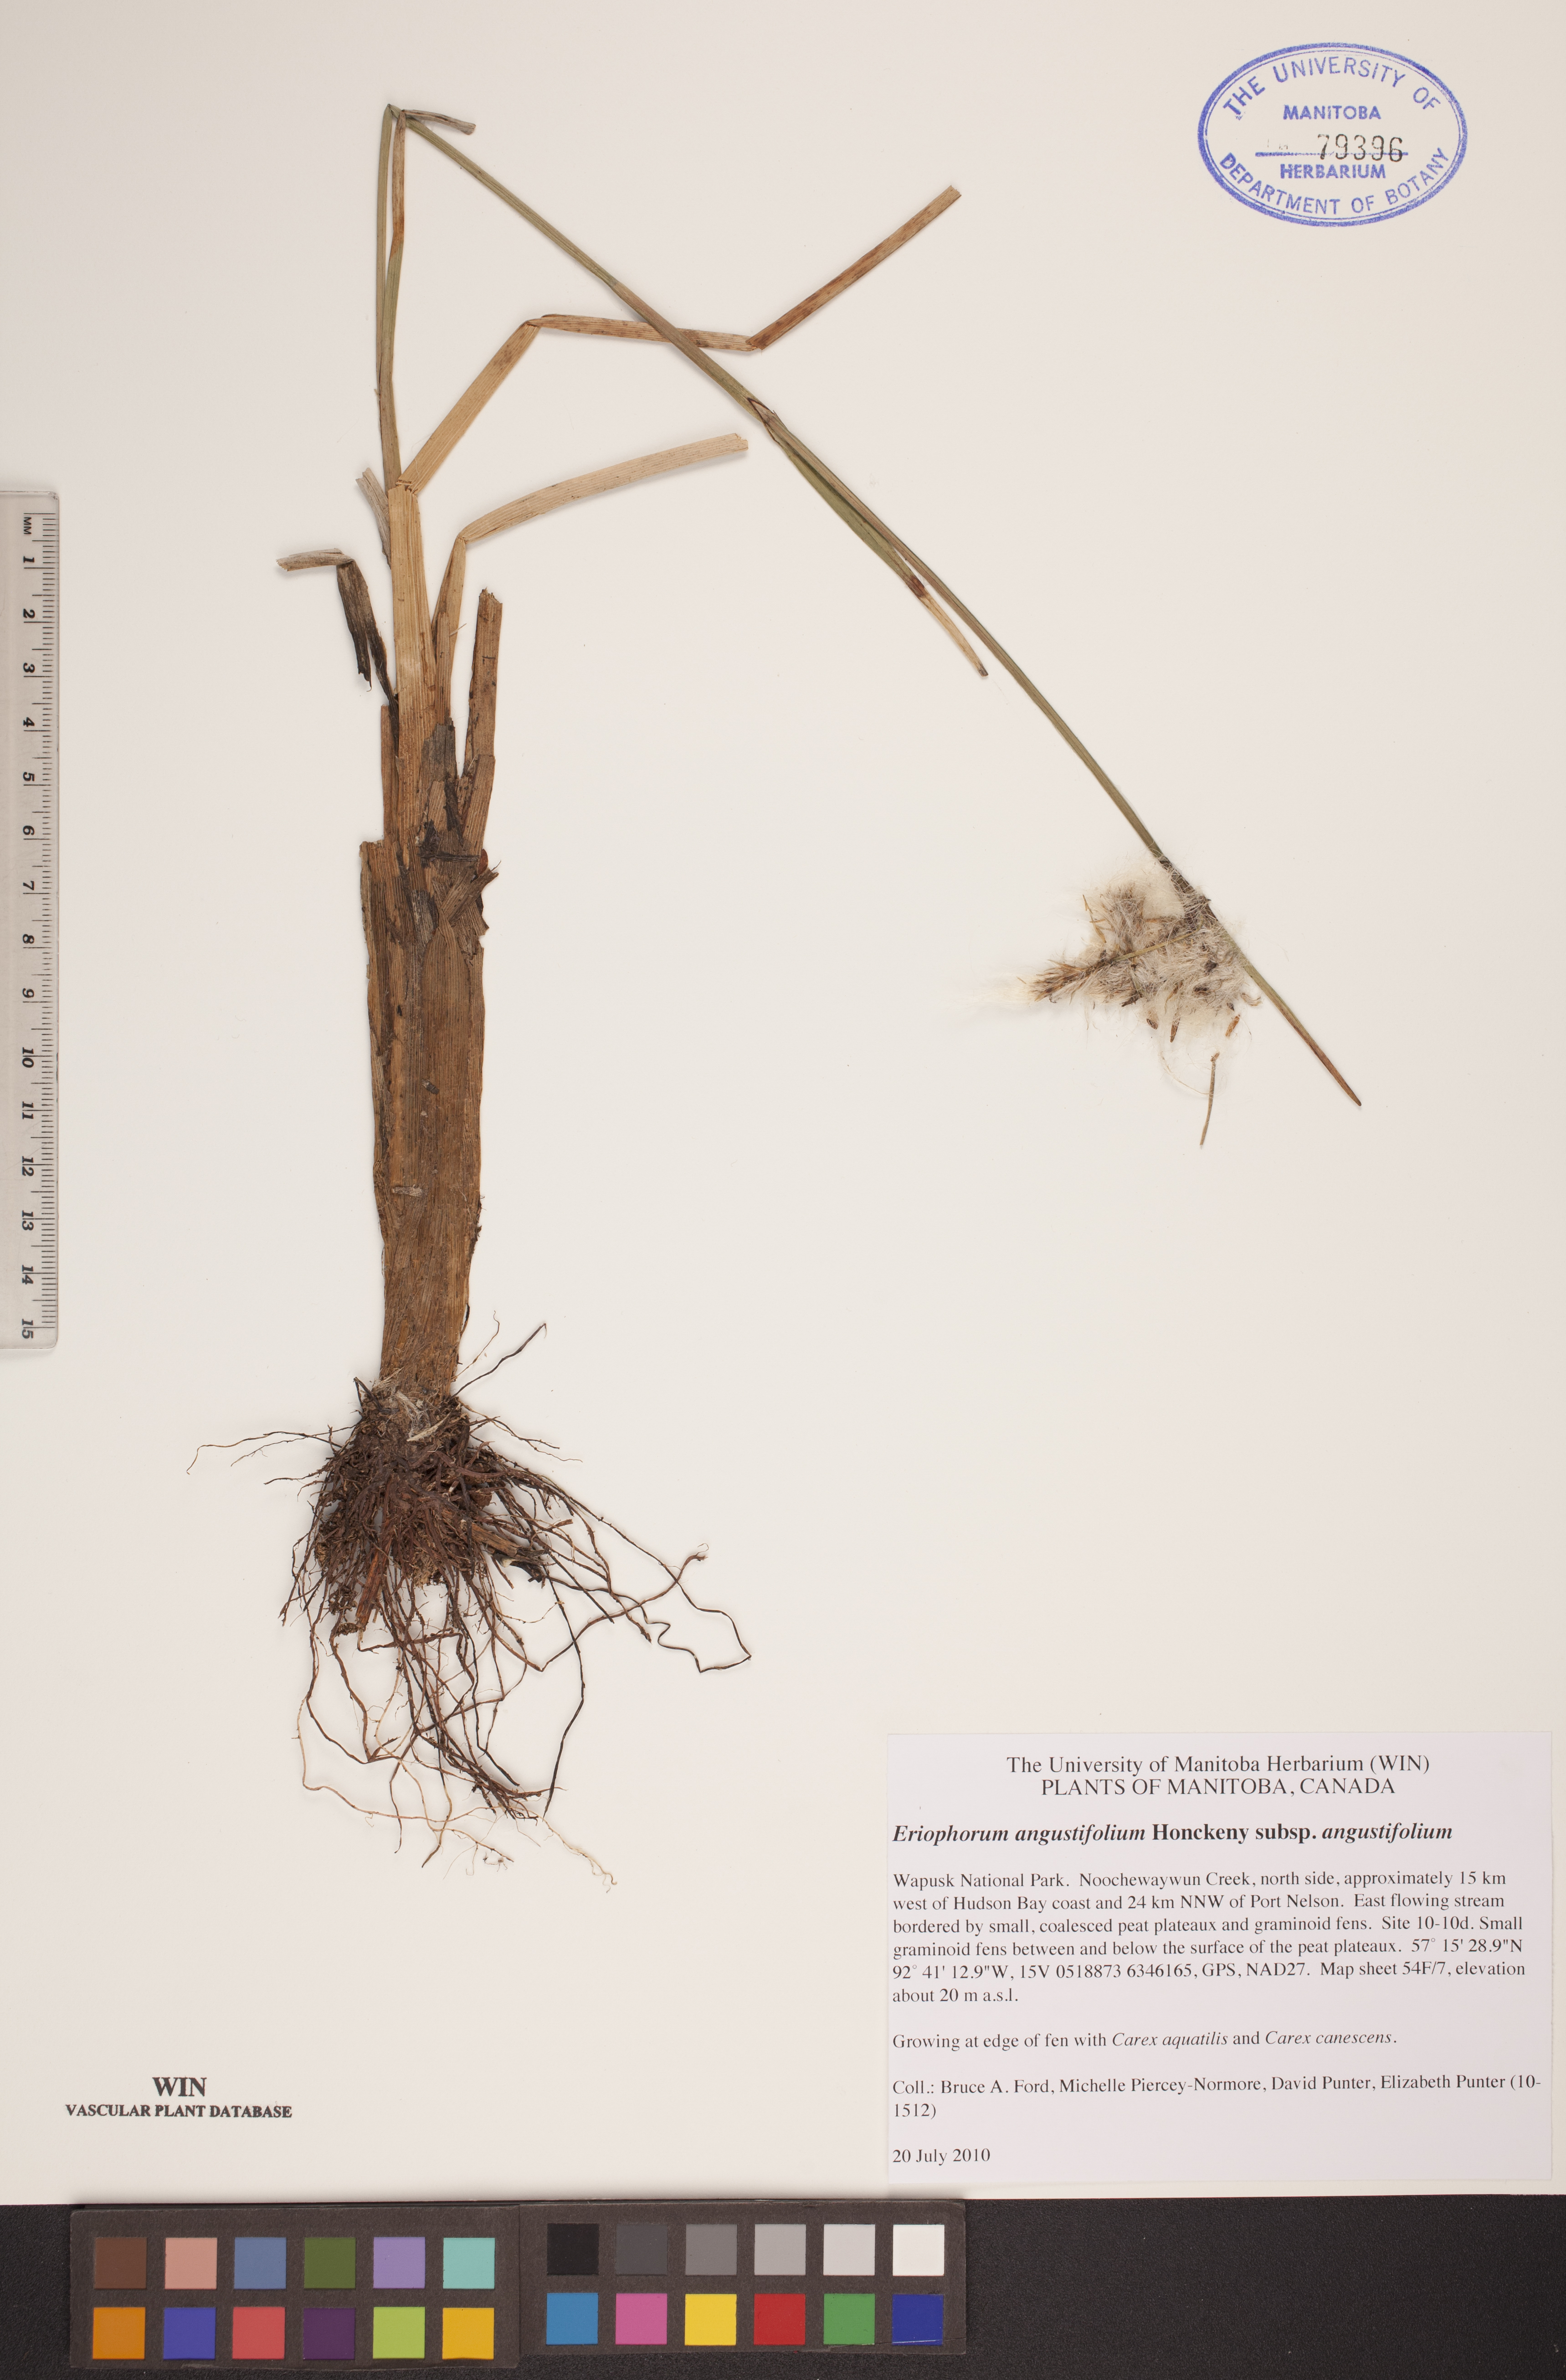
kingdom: Plantae
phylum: Tracheophyta
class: Liliopsida
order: Poales
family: Cyperaceae
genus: Eriophorum
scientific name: Eriophorum angustifolium
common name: Common cottongrass
